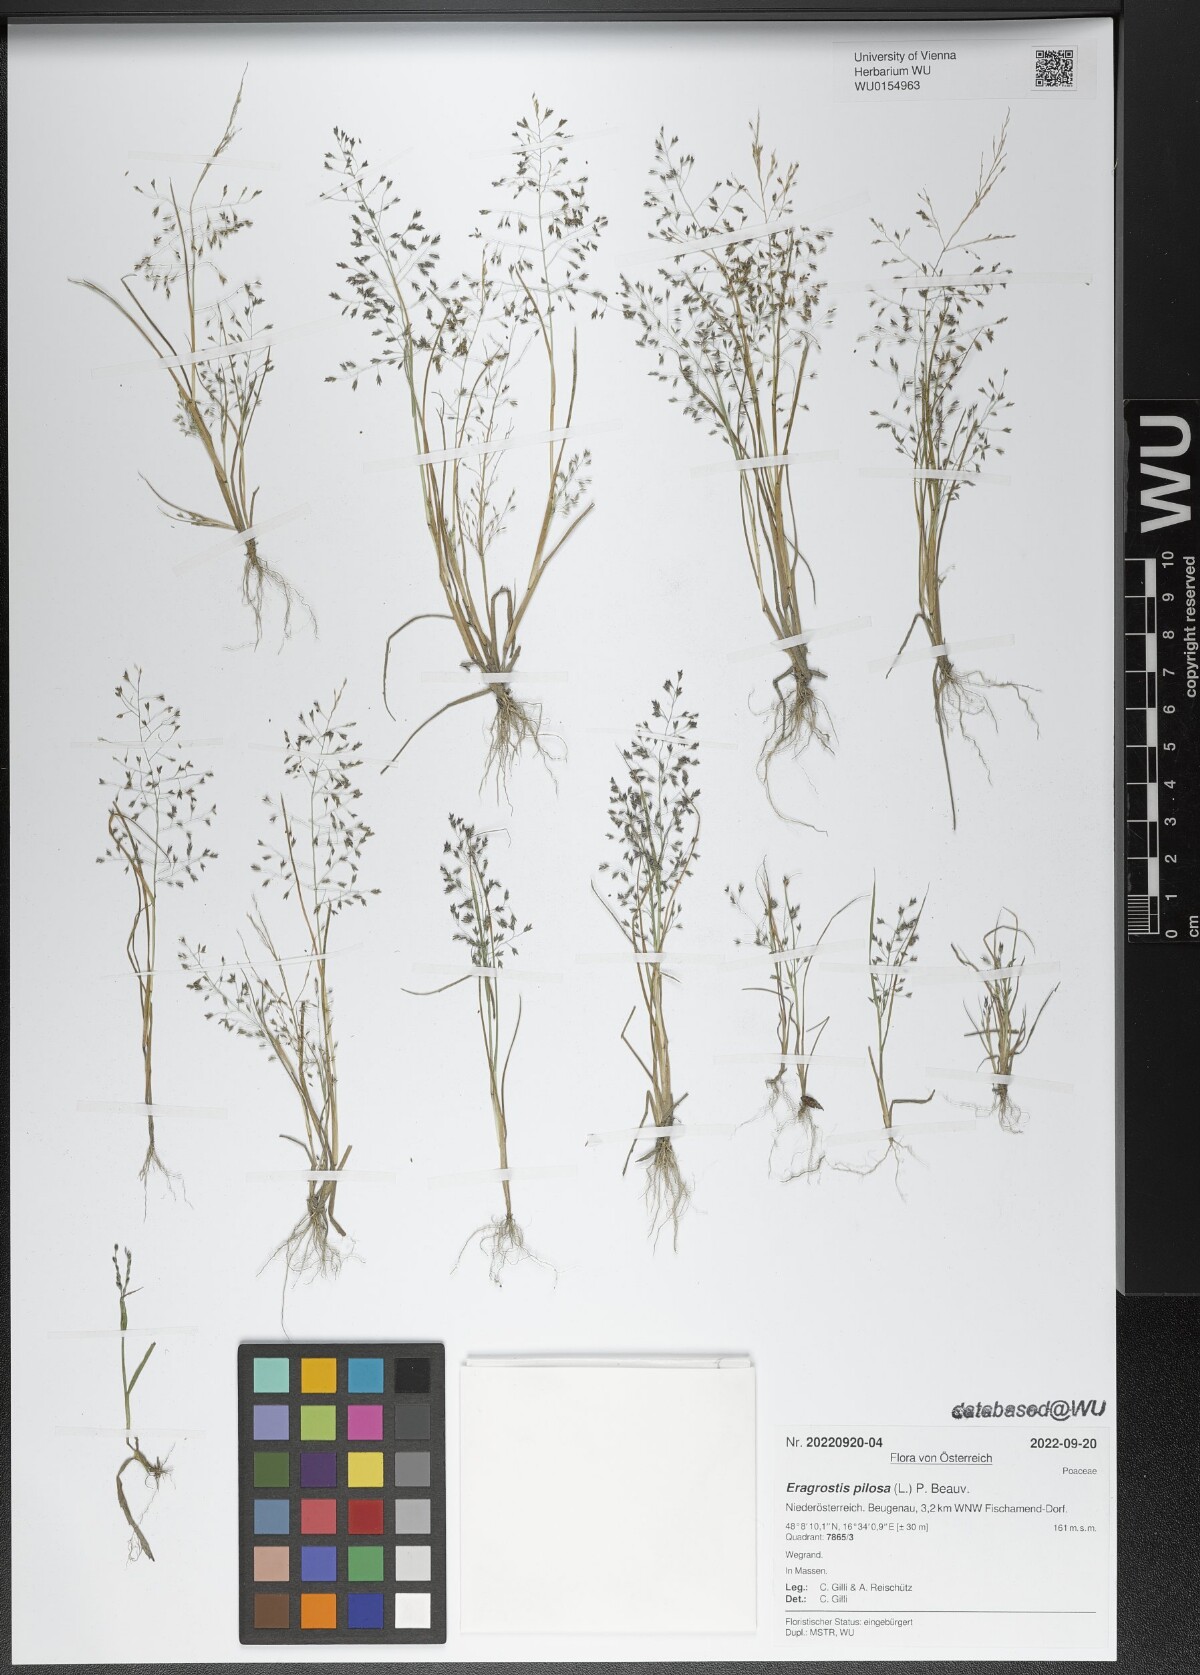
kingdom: Plantae
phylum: Tracheophyta
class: Liliopsida
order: Poales
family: Poaceae
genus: Eragrostis
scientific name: Eragrostis pilosa
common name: Indian lovegrass
